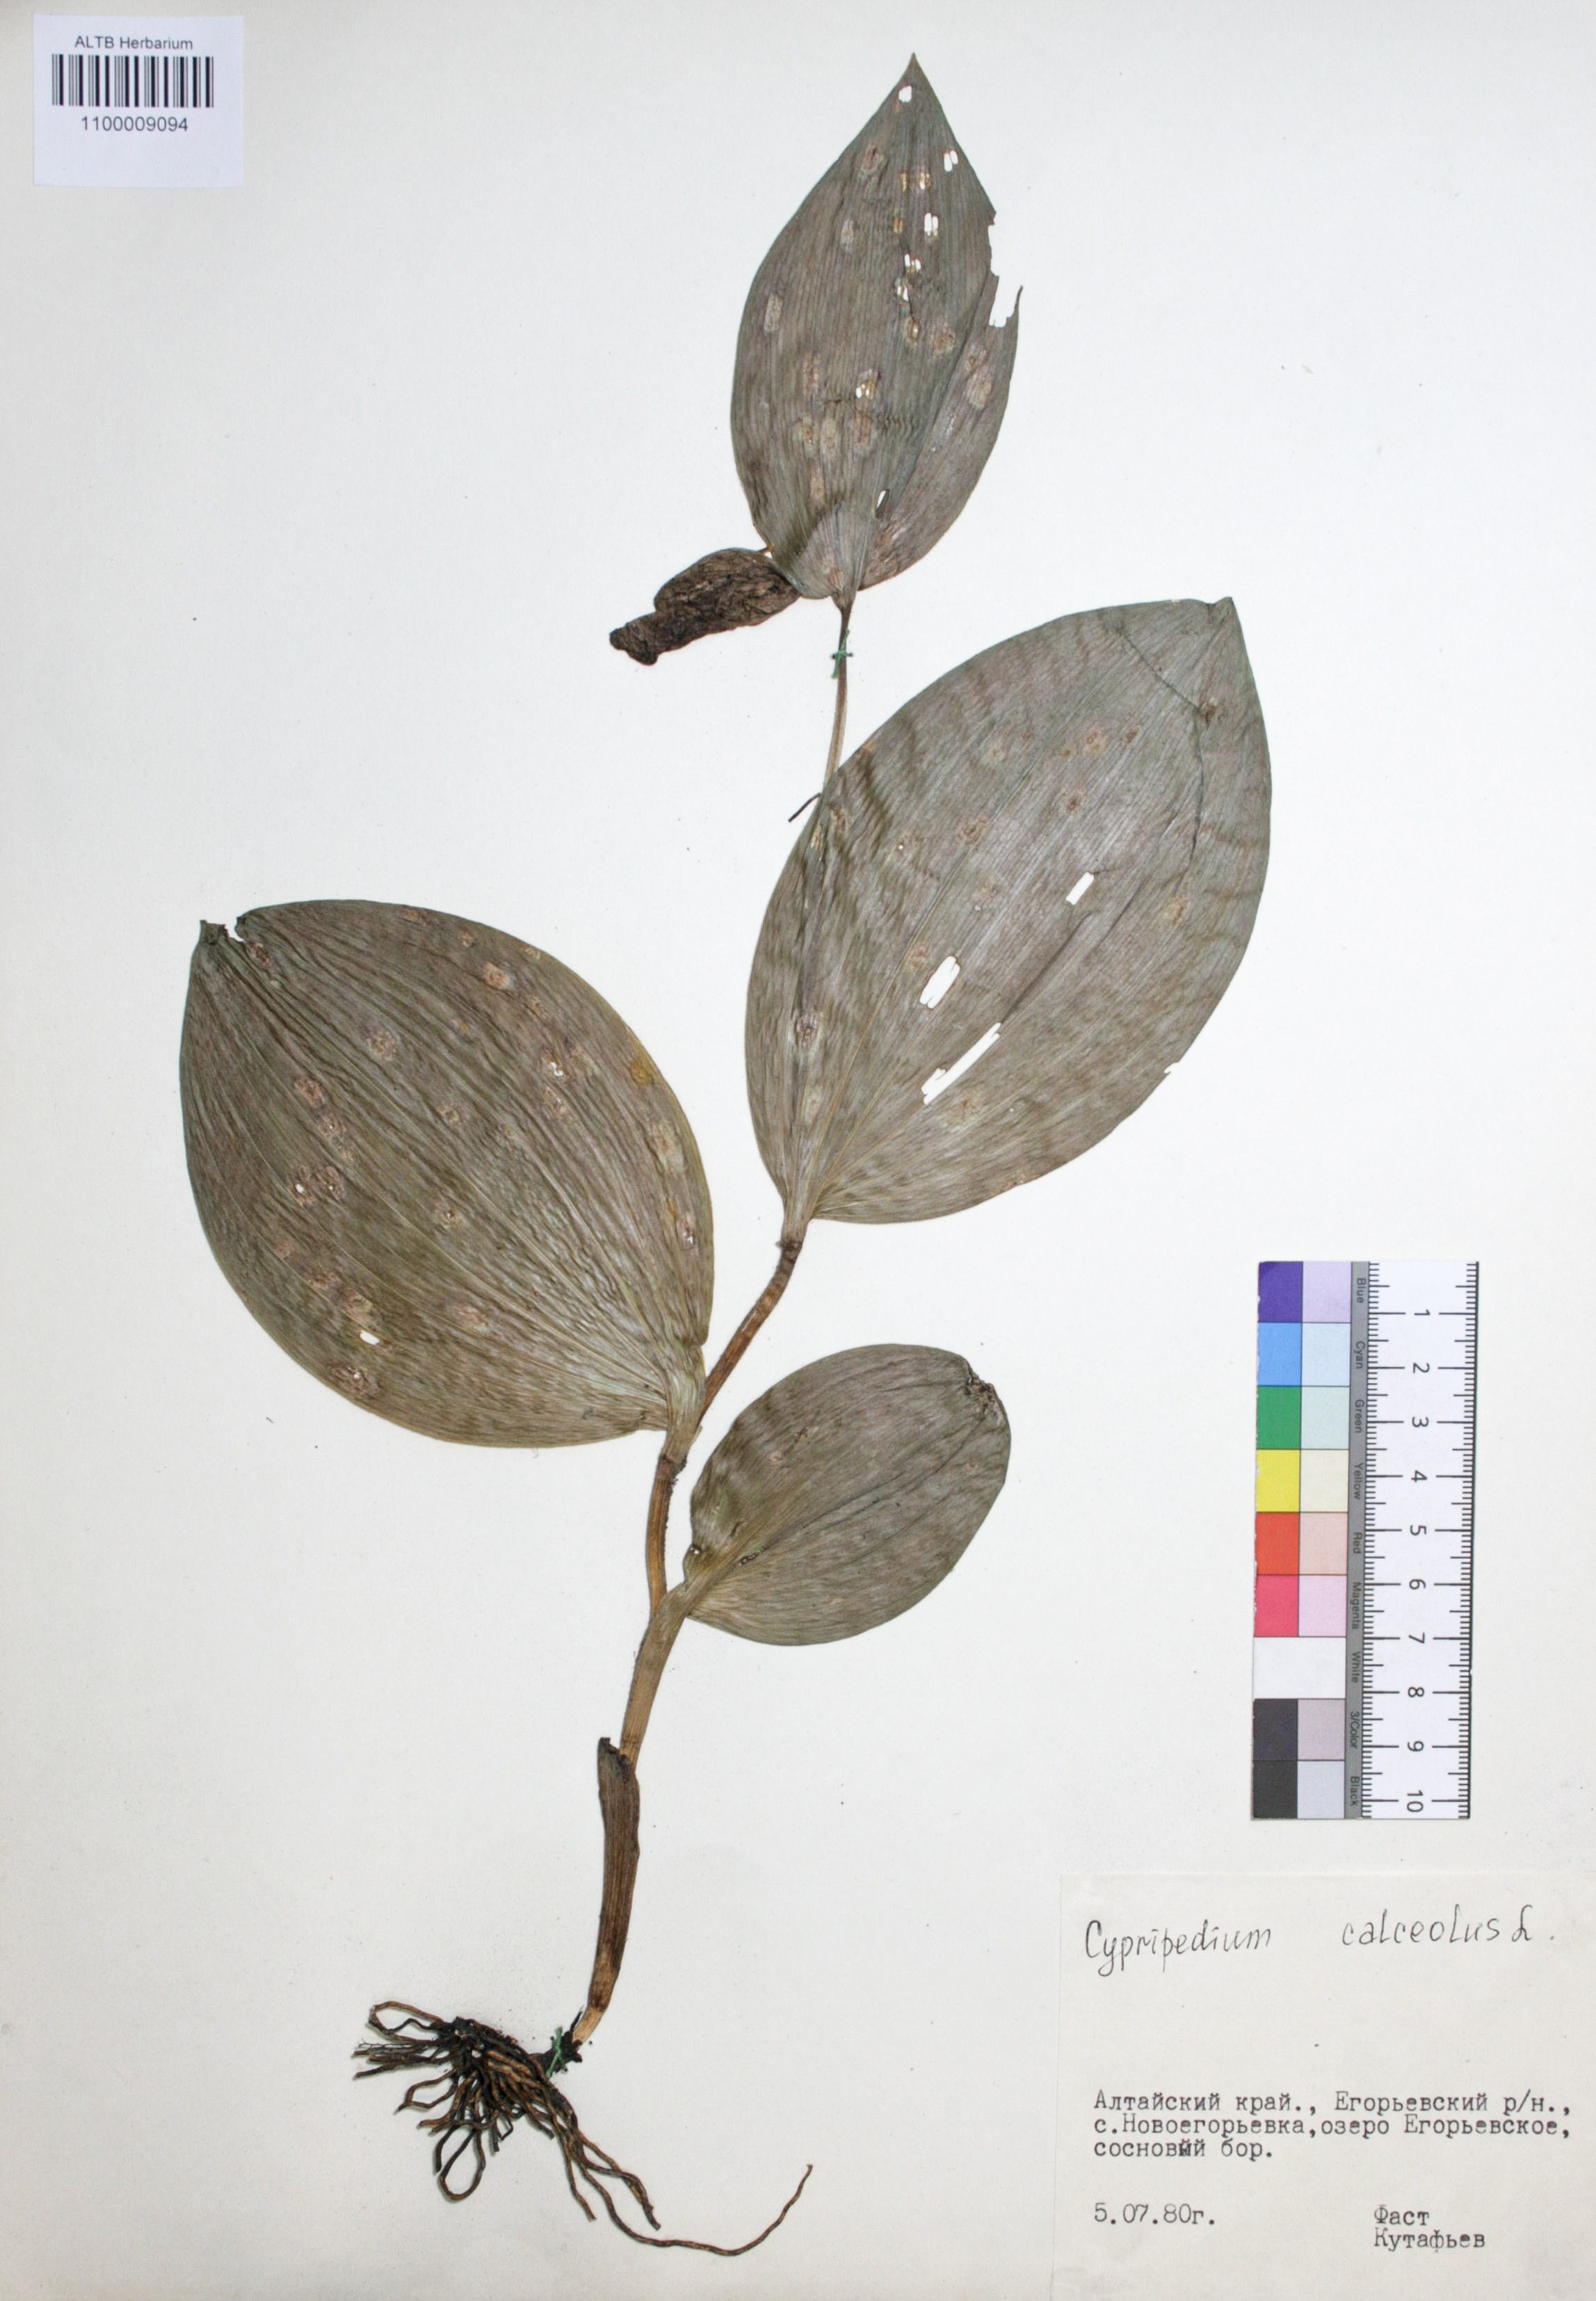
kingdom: Plantae
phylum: Tracheophyta
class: Liliopsida
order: Asparagales
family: Orchidaceae
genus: Cypripedium
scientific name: Cypripedium calceolus
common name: Lady's-slipper
